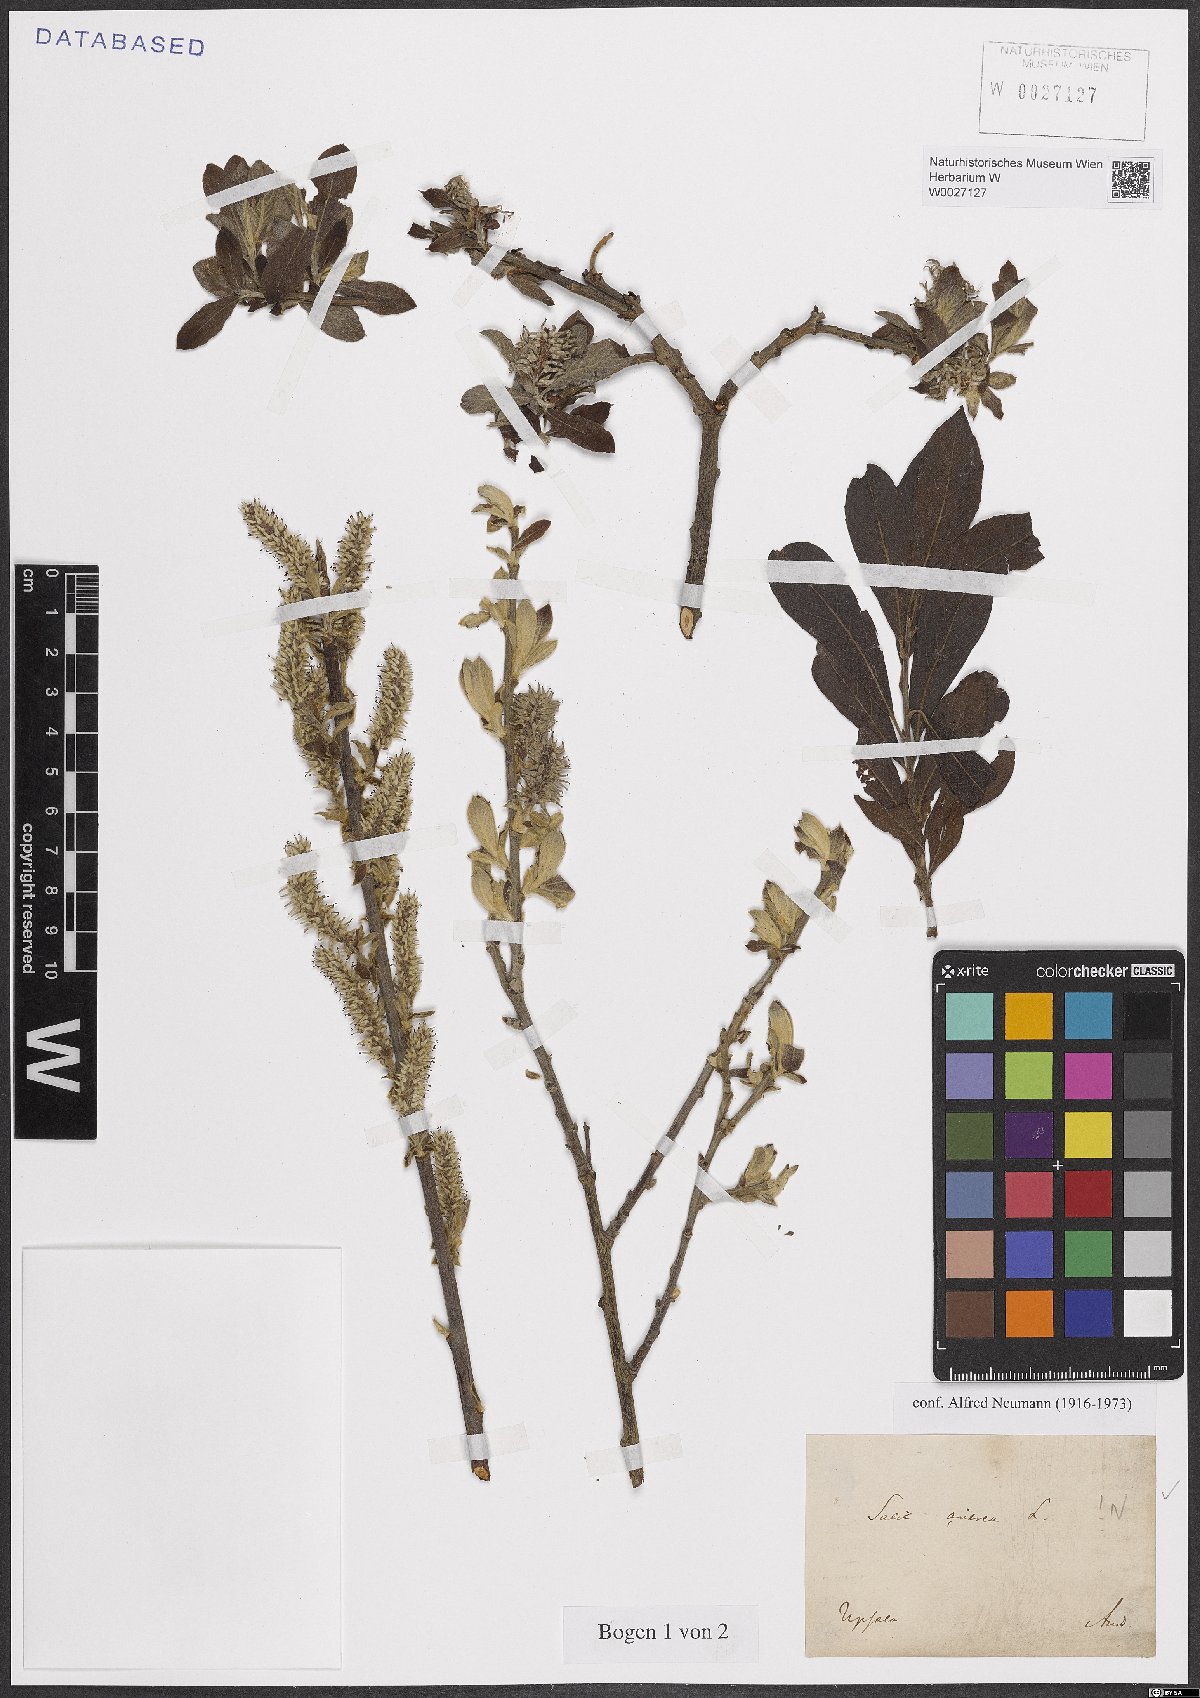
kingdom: Plantae
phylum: Tracheophyta
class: Magnoliopsida
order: Malpighiales
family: Salicaceae
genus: Salix
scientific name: Salix cinerea
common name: Common sallow
